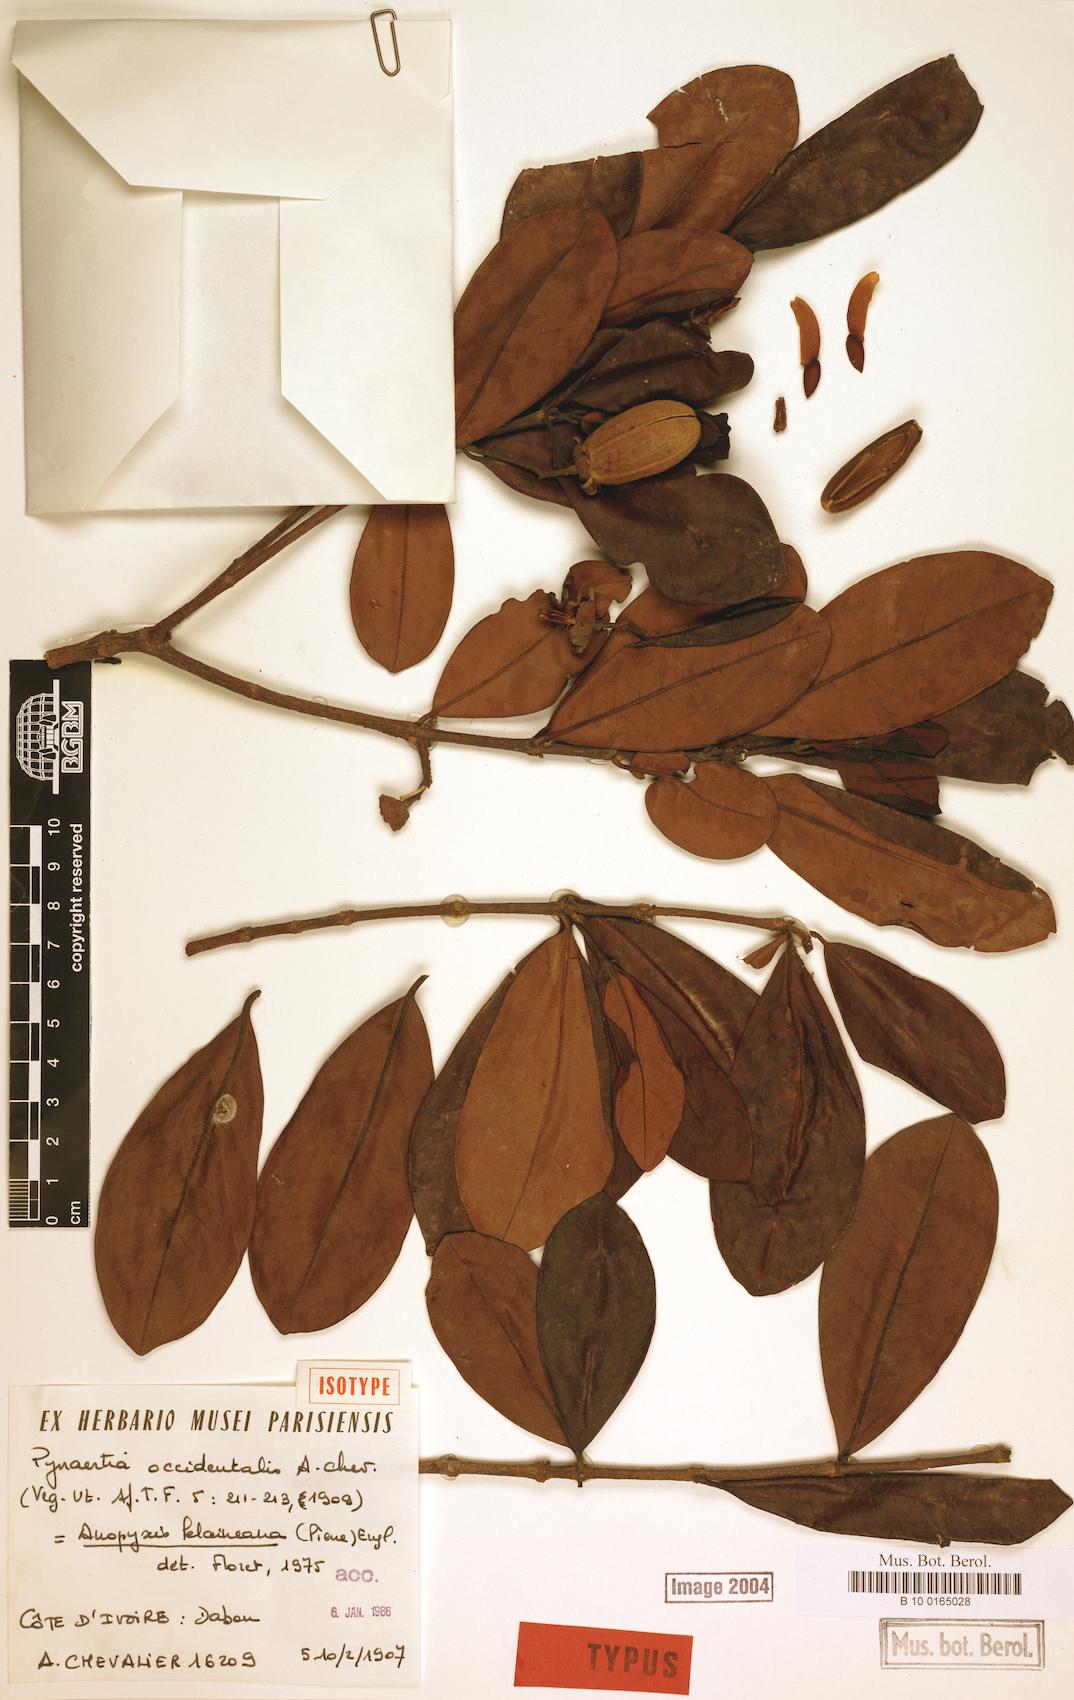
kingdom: Plantae
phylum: Tracheophyta
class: Magnoliopsida
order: Malpighiales
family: Rhizophoraceae
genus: Anopyxis
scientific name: Anopyxis klaineana
